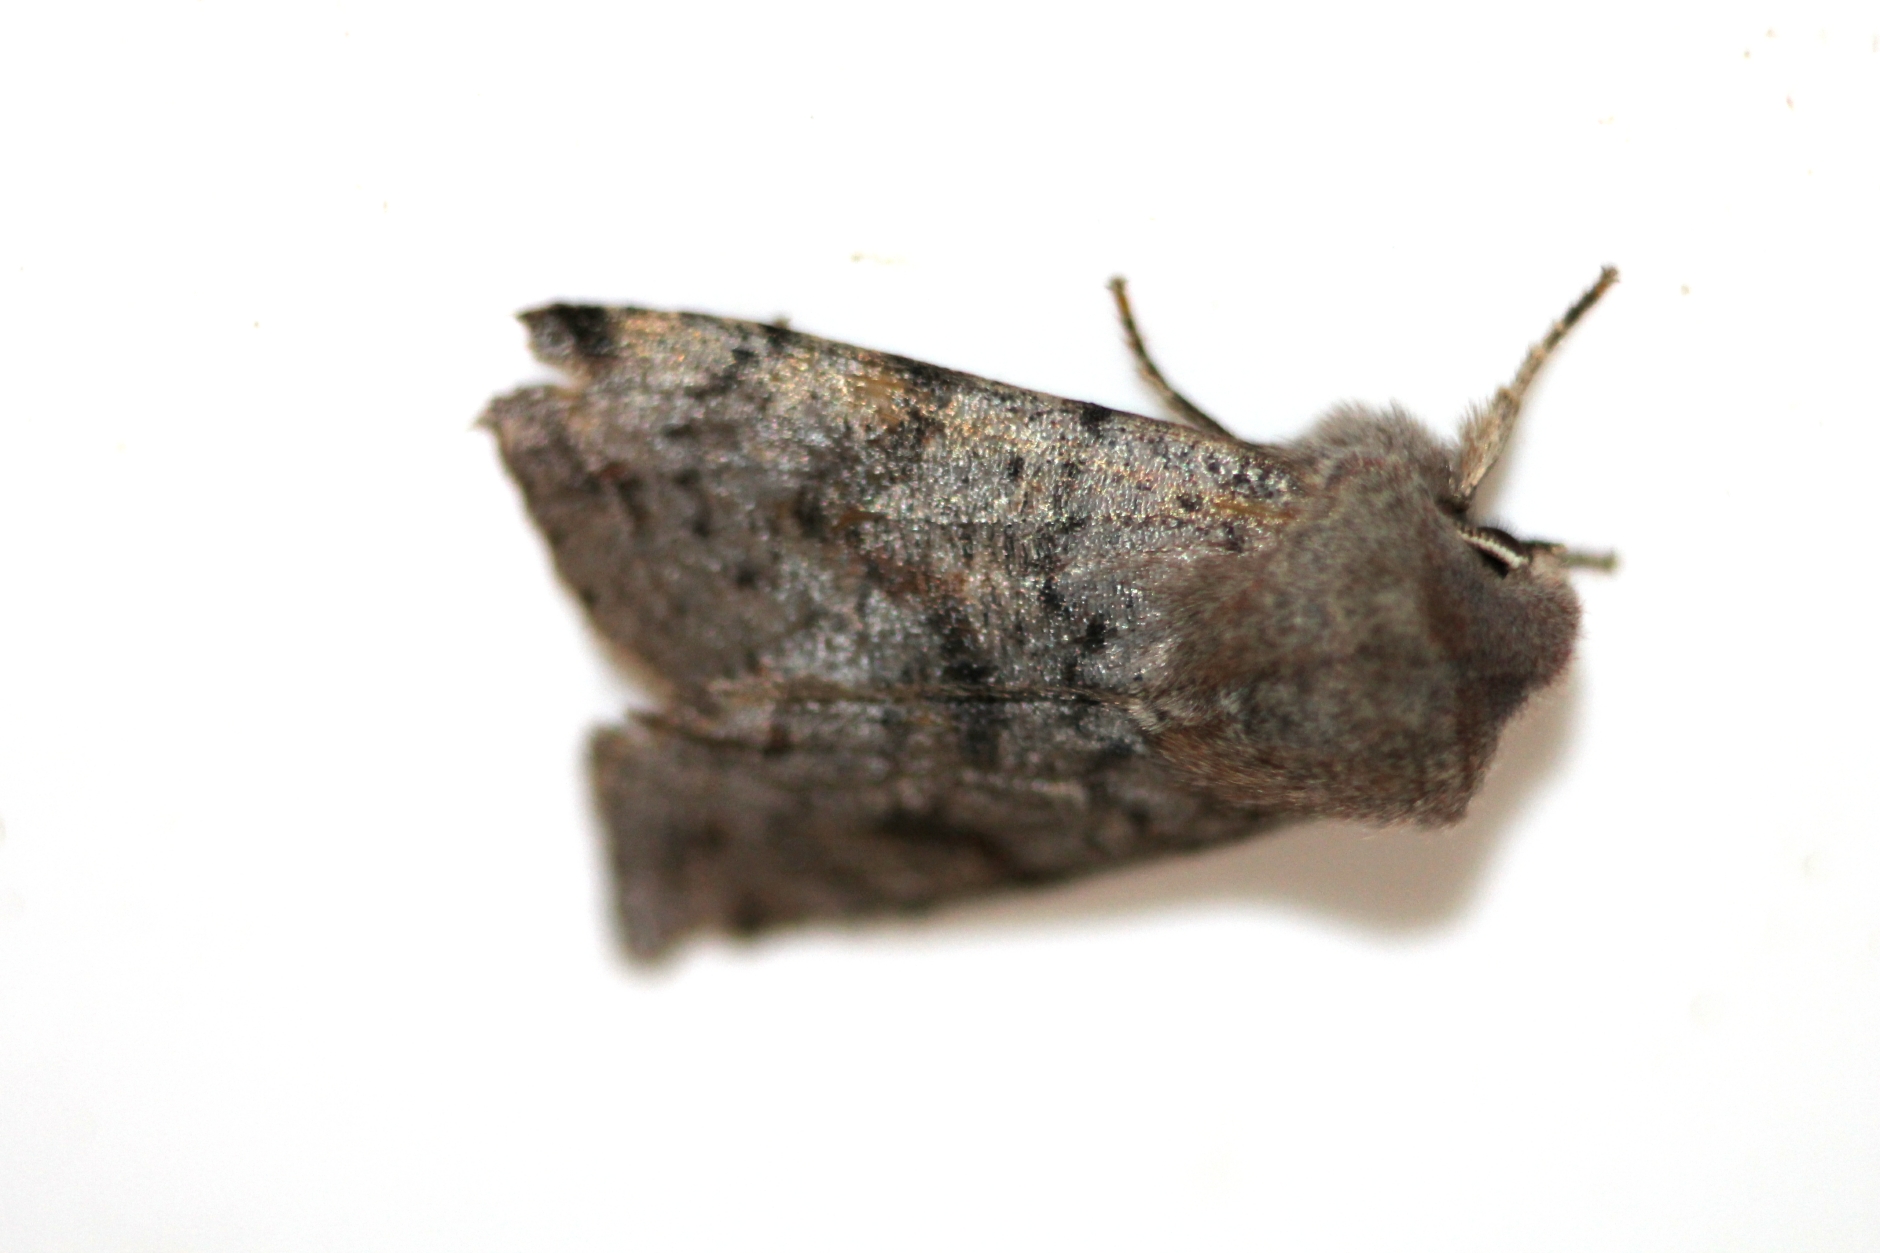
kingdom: Animalia
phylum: Arthropoda
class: Insecta
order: Lepidoptera
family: Noctuidae
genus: Orthosia
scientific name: Orthosia incerta
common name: Clouded drab
